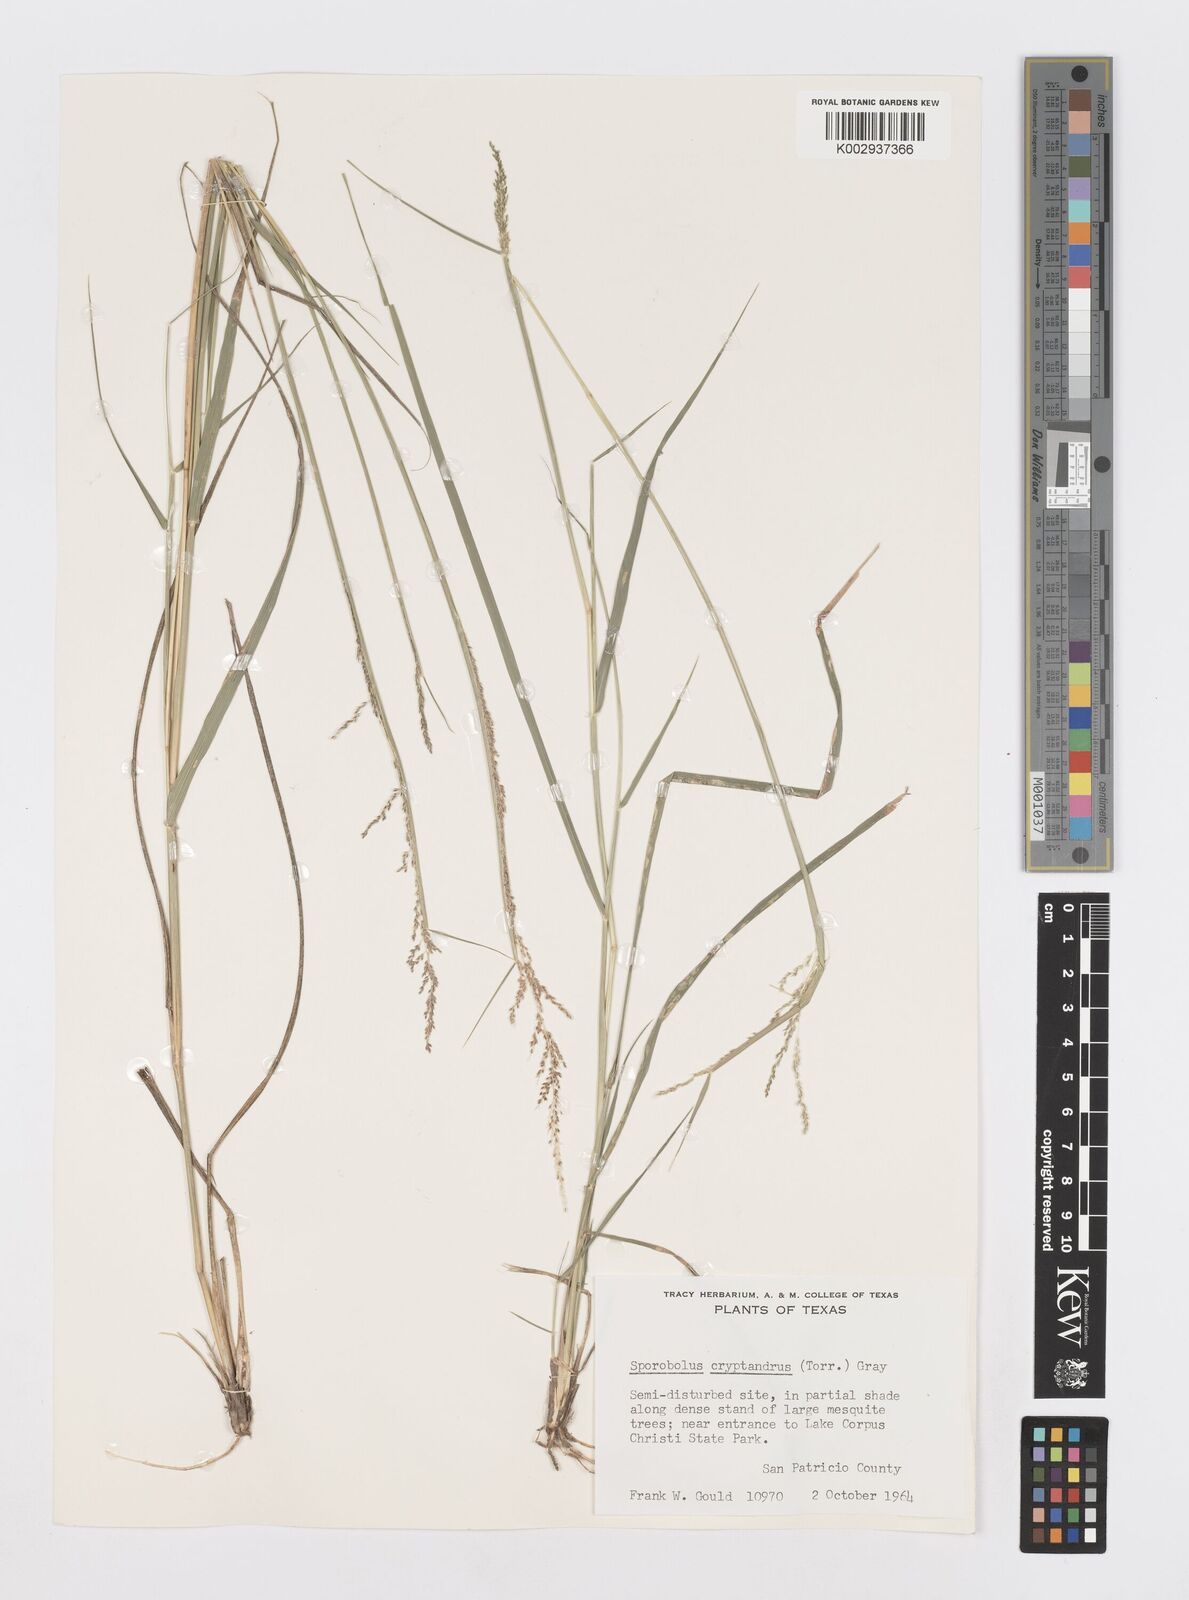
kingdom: Plantae
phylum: Tracheophyta
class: Liliopsida
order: Poales
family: Poaceae
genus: Sporobolus
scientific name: Sporobolus cryptandrus
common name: Sand dropseed
